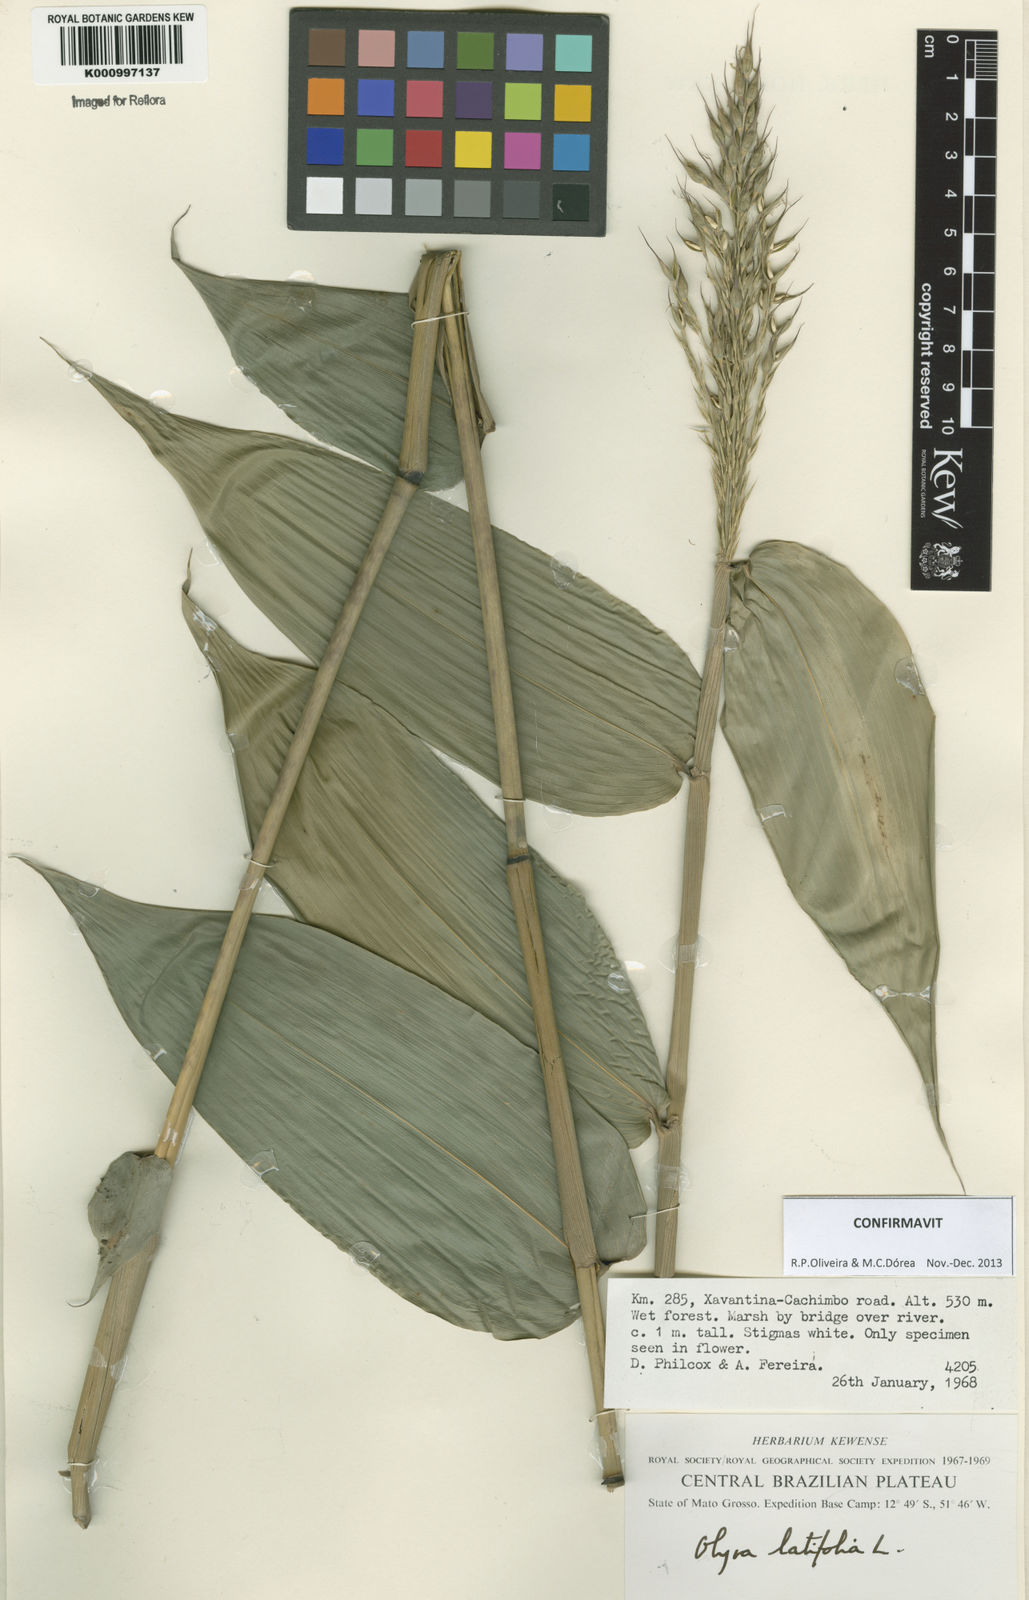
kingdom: Plantae
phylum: Tracheophyta
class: Liliopsida
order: Poales
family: Poaceae
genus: Olyra
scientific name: Olyra latifolia
